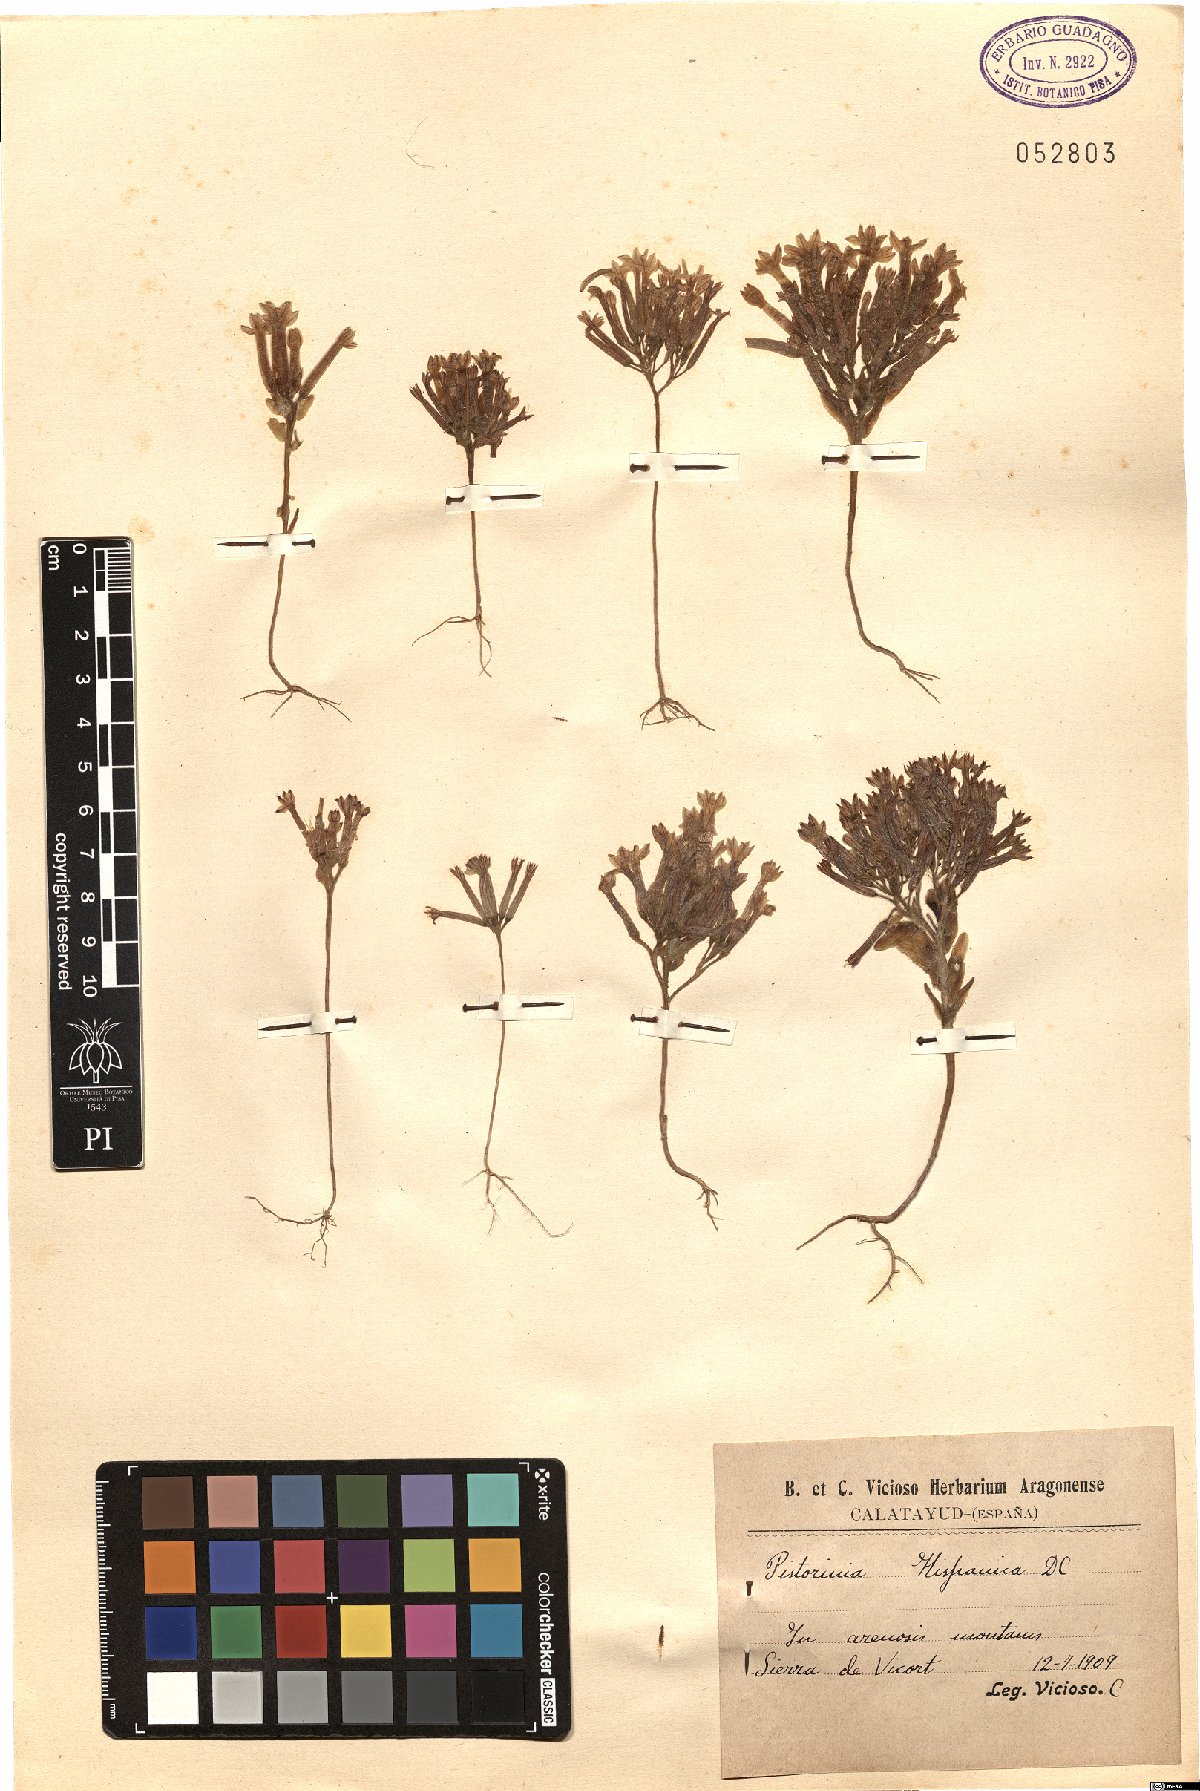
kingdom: Plantae
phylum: Tracheophyta
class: Magnoliopsida
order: Saxifragales
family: Crassulaceae
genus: Pistorinia
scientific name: Pistorinia hispanica
